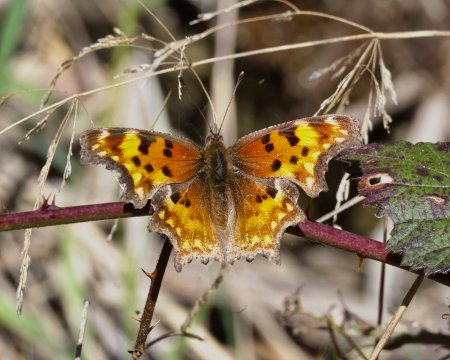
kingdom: Animalia
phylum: Arthropoda
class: Insecta
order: Lepidoptera
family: Nymphalidae
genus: Polygonia
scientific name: Polygonia gracilis
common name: Hoary Comma
